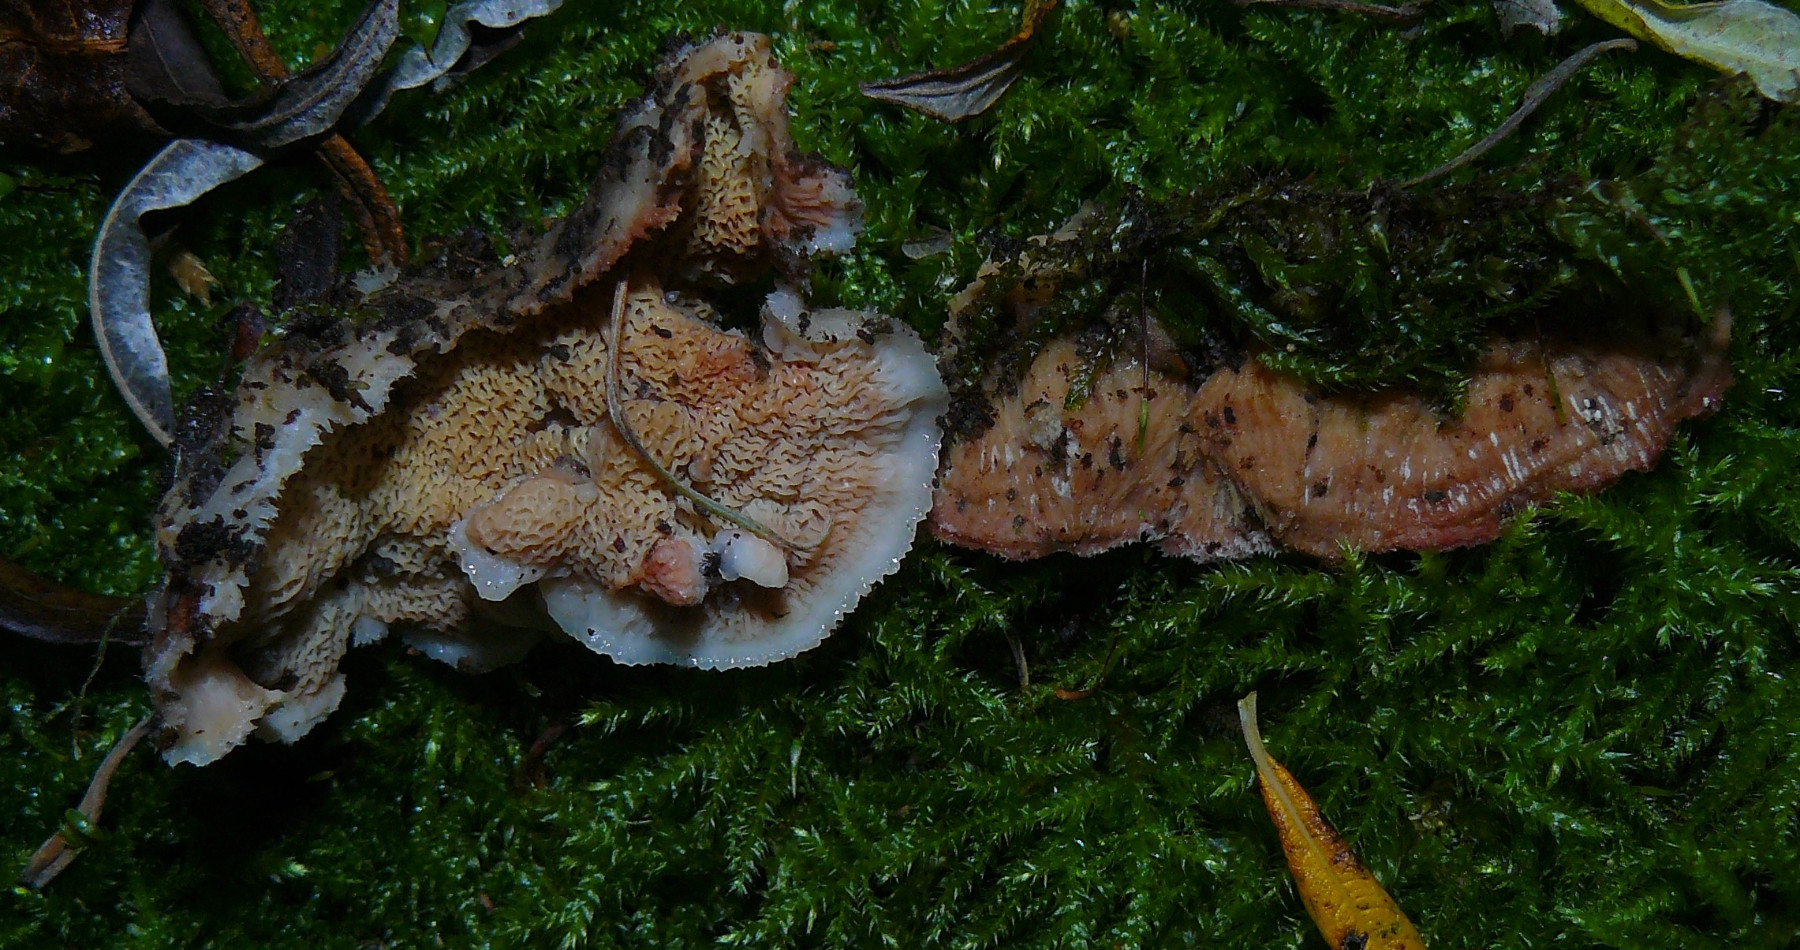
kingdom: Fungi
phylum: Basidiomycota
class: Agaricomycetes
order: Polyporales
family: Meruliaceae
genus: Phlebia
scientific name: Phlebia tremellosa
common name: bævrende åresvamp
